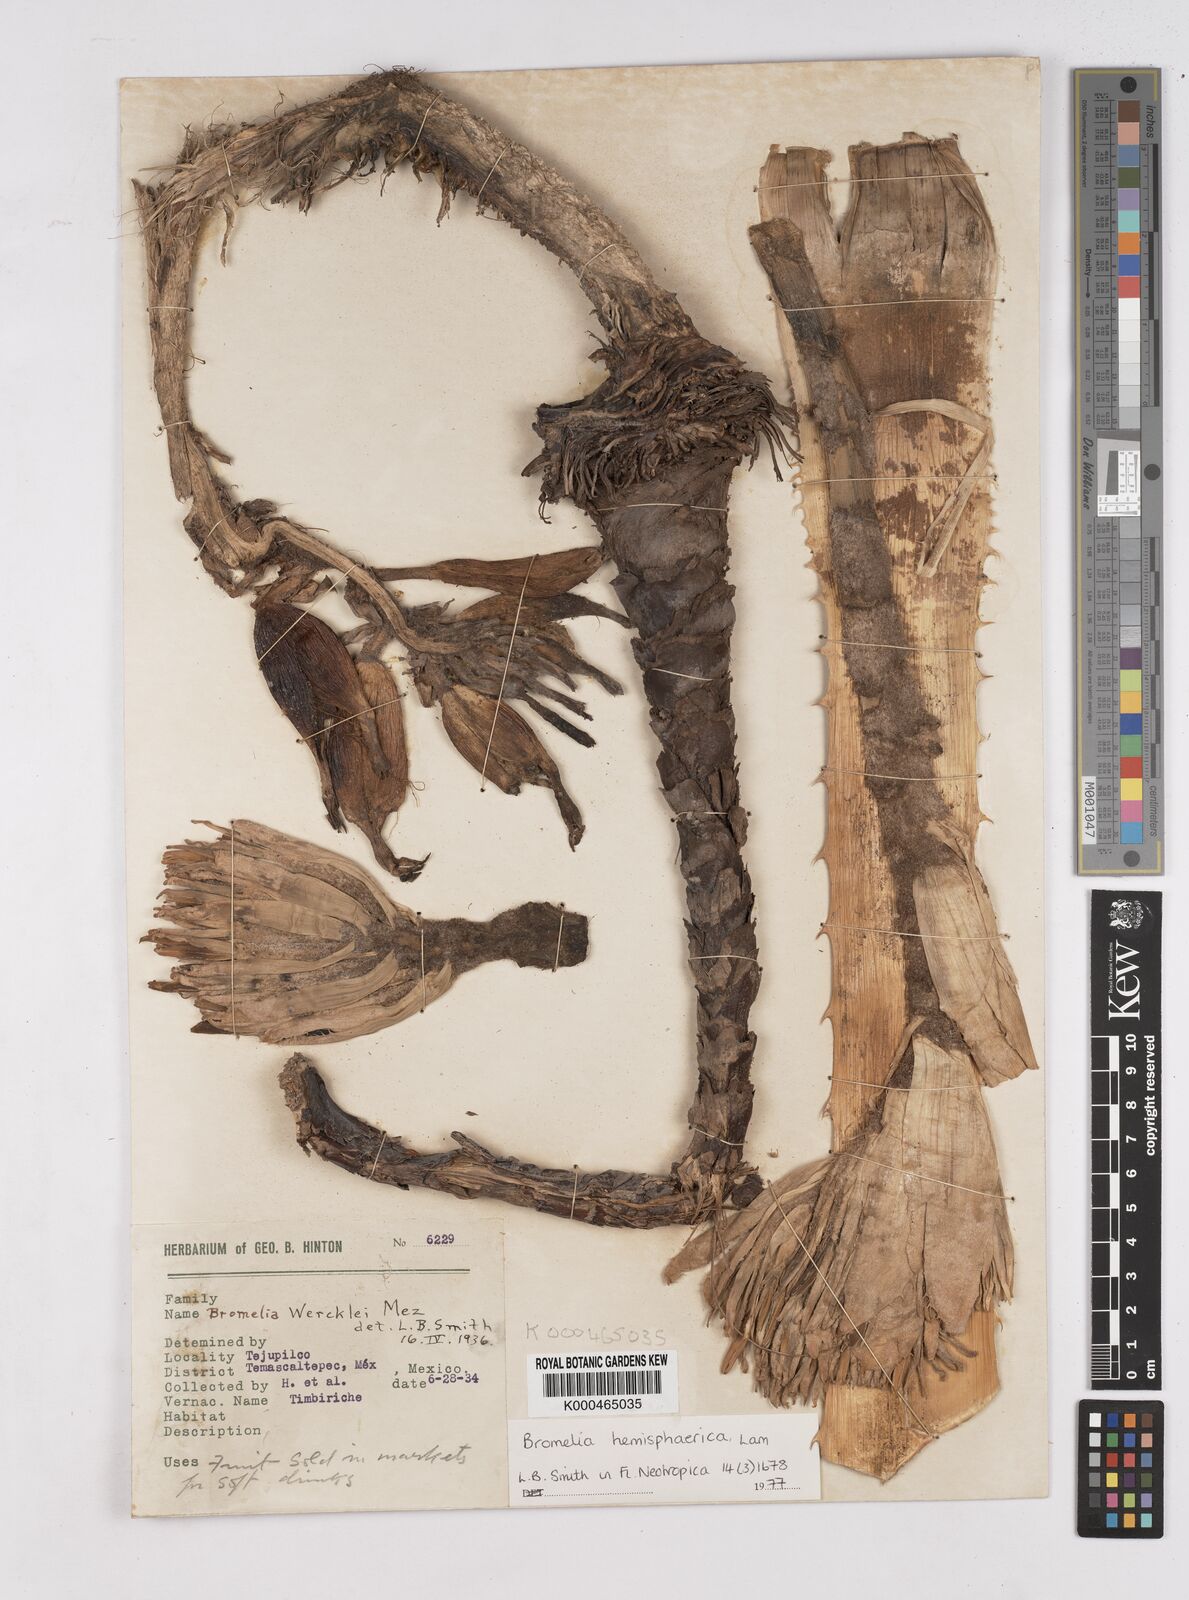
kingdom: Plantae
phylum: Tracheophyta
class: Liliopsida
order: Poales
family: Bromeliaceae
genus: Bromelia
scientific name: Bromelia hemisphaerica
